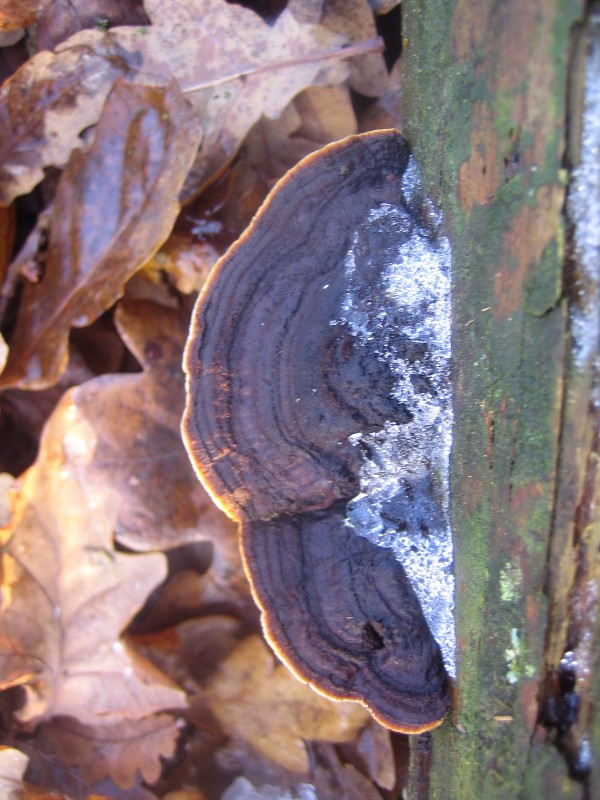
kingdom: Fungi
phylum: Basidiomycota
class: Agaricomycetes
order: Gloeophyllales
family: Gloeophyllaceae
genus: Gloeophyllum
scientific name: Gloeophyllum sepiarium
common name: fyrre-korkhat
